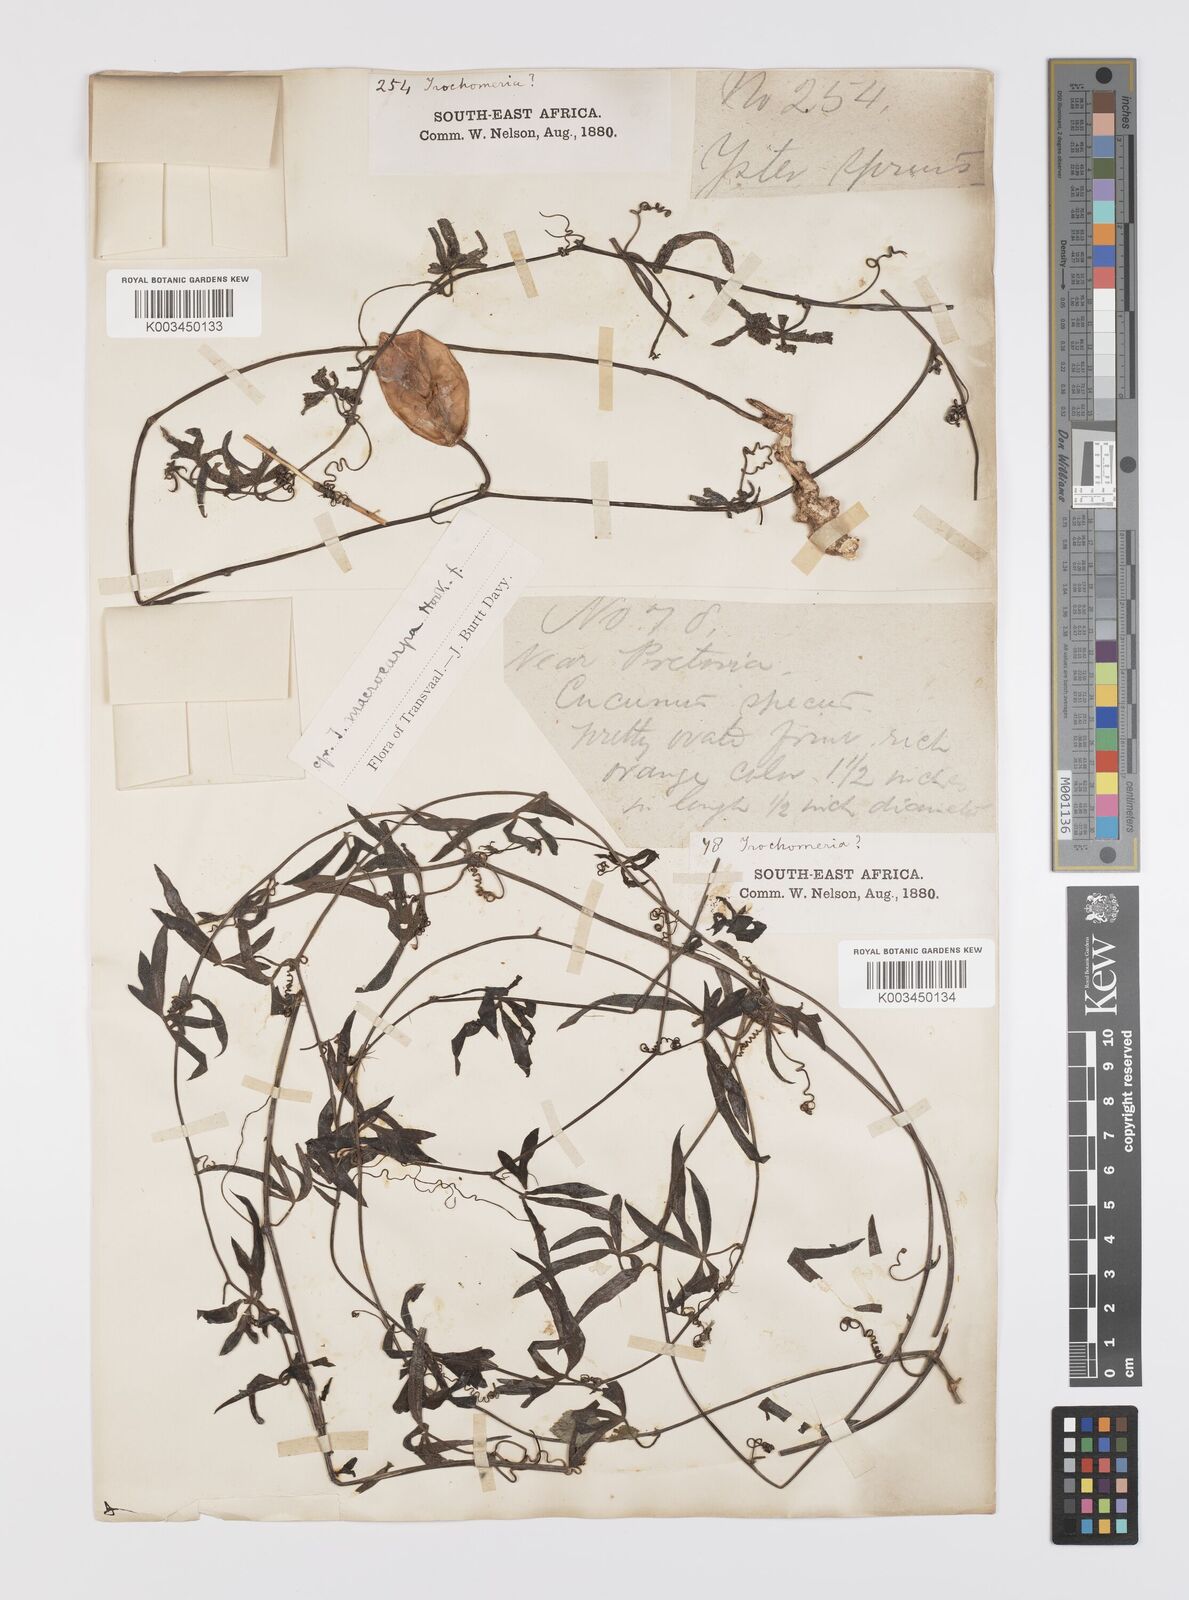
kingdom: Plantae
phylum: Tracheophyta
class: Magnoliopsida
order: Cucurbitales
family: Cucurbitaceae
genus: Trochomeria
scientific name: Trochomeria macrocarpa
